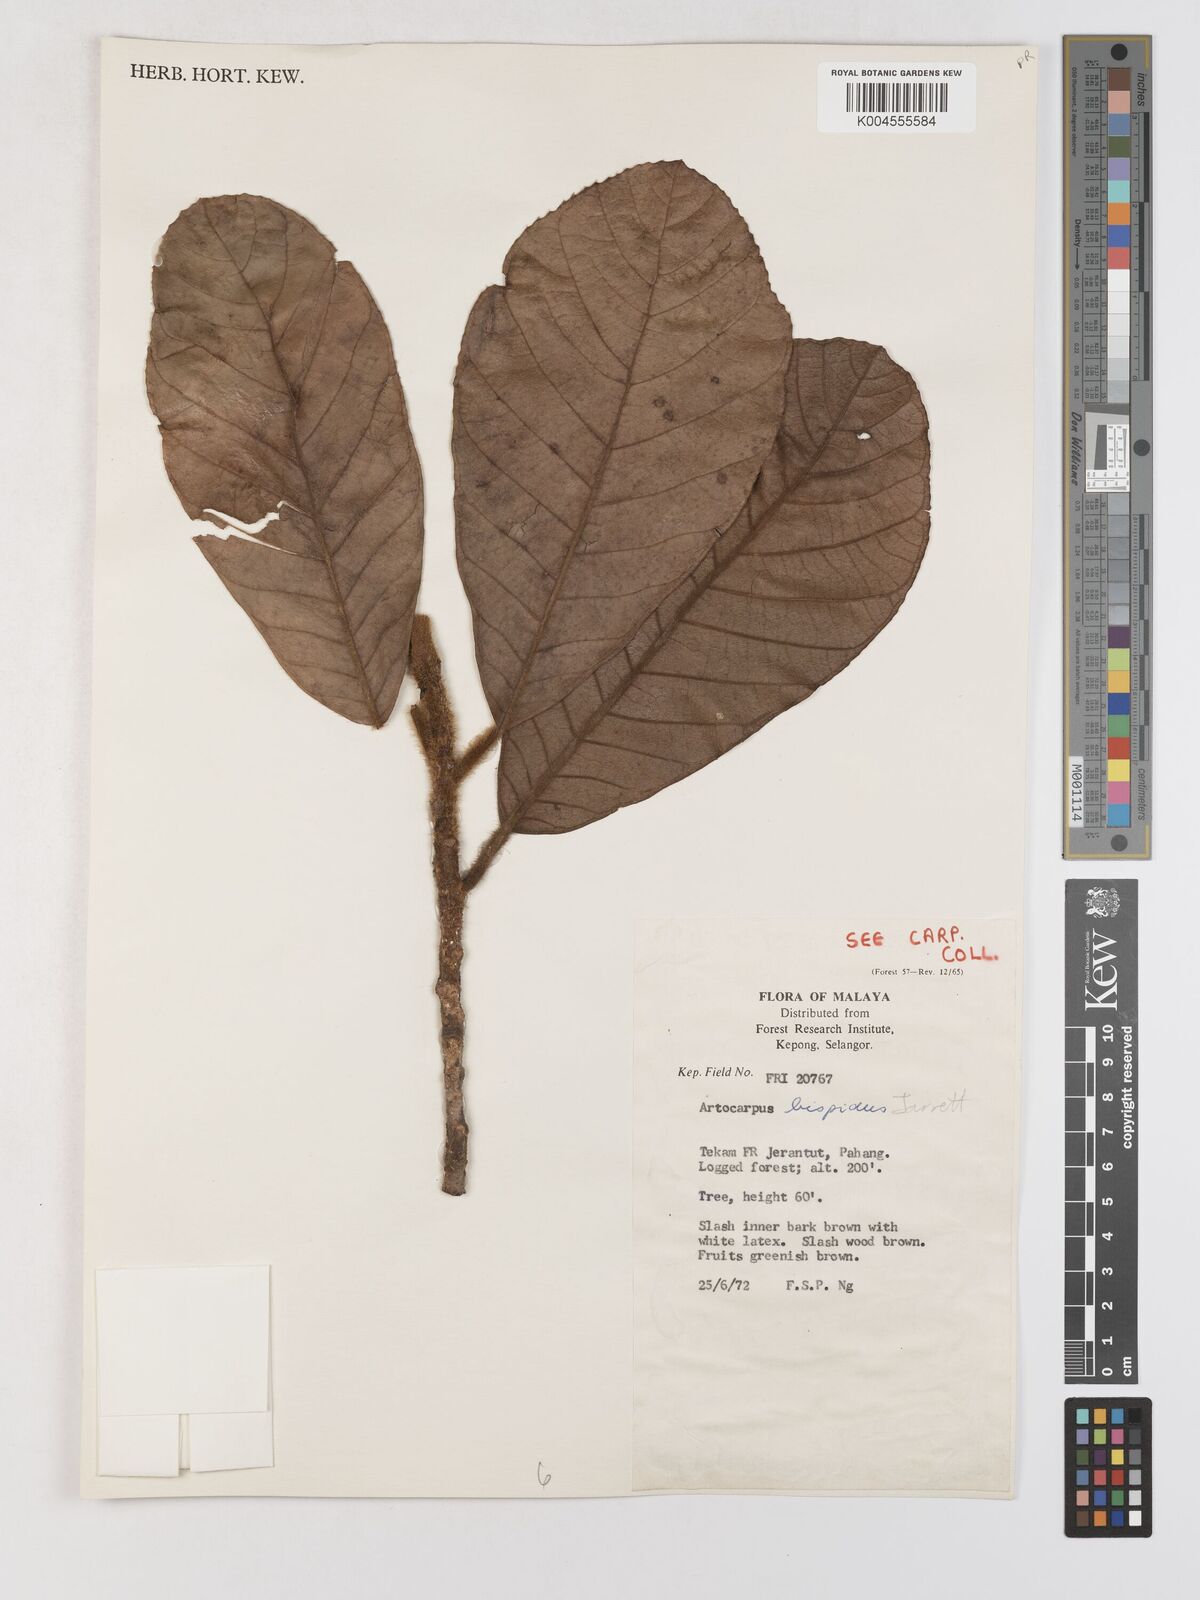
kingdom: Plantae
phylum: Tracheophyta
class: Magnoliopsida
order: Rosales
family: Moraceae
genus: Artocarpus
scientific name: Artocarpus hispidus
